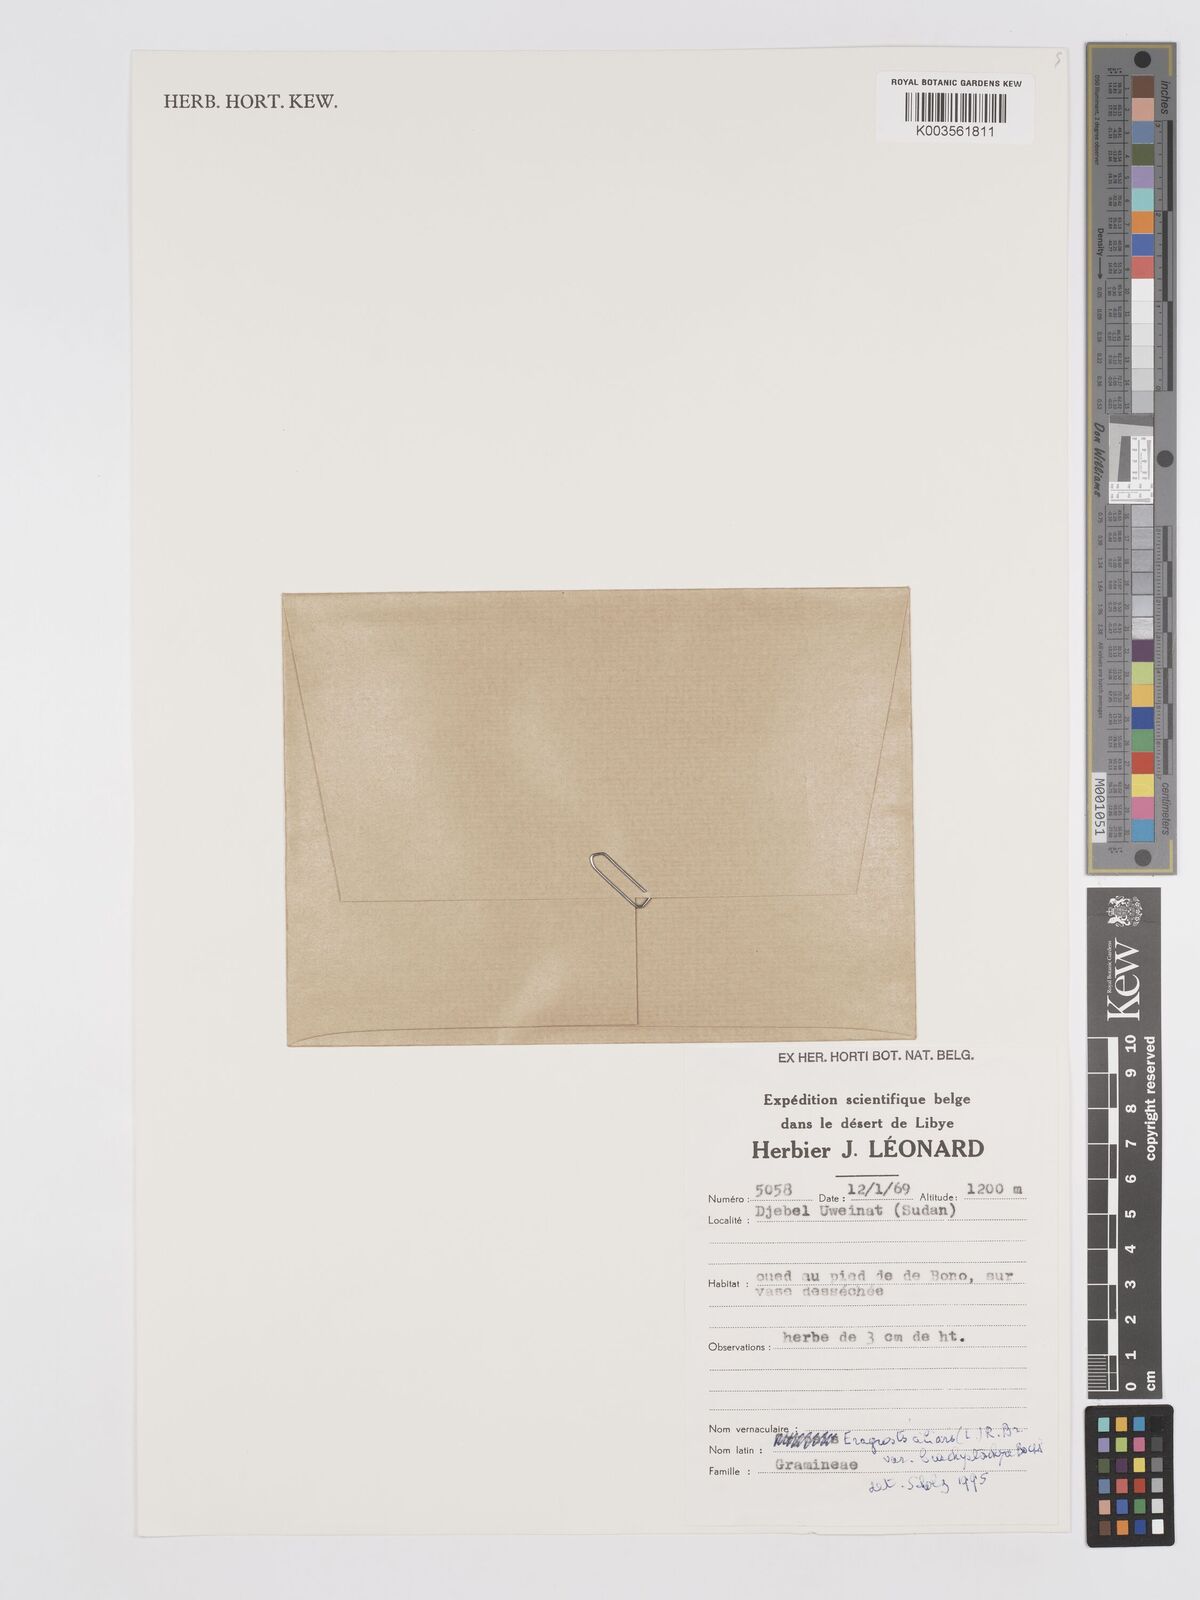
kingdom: Plantae
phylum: Tracheophyta
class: Liliopsida
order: Poales
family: Poaceae
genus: Eragrostis
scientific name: Eragrostis ciliaris
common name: Gophertail lovegrass
